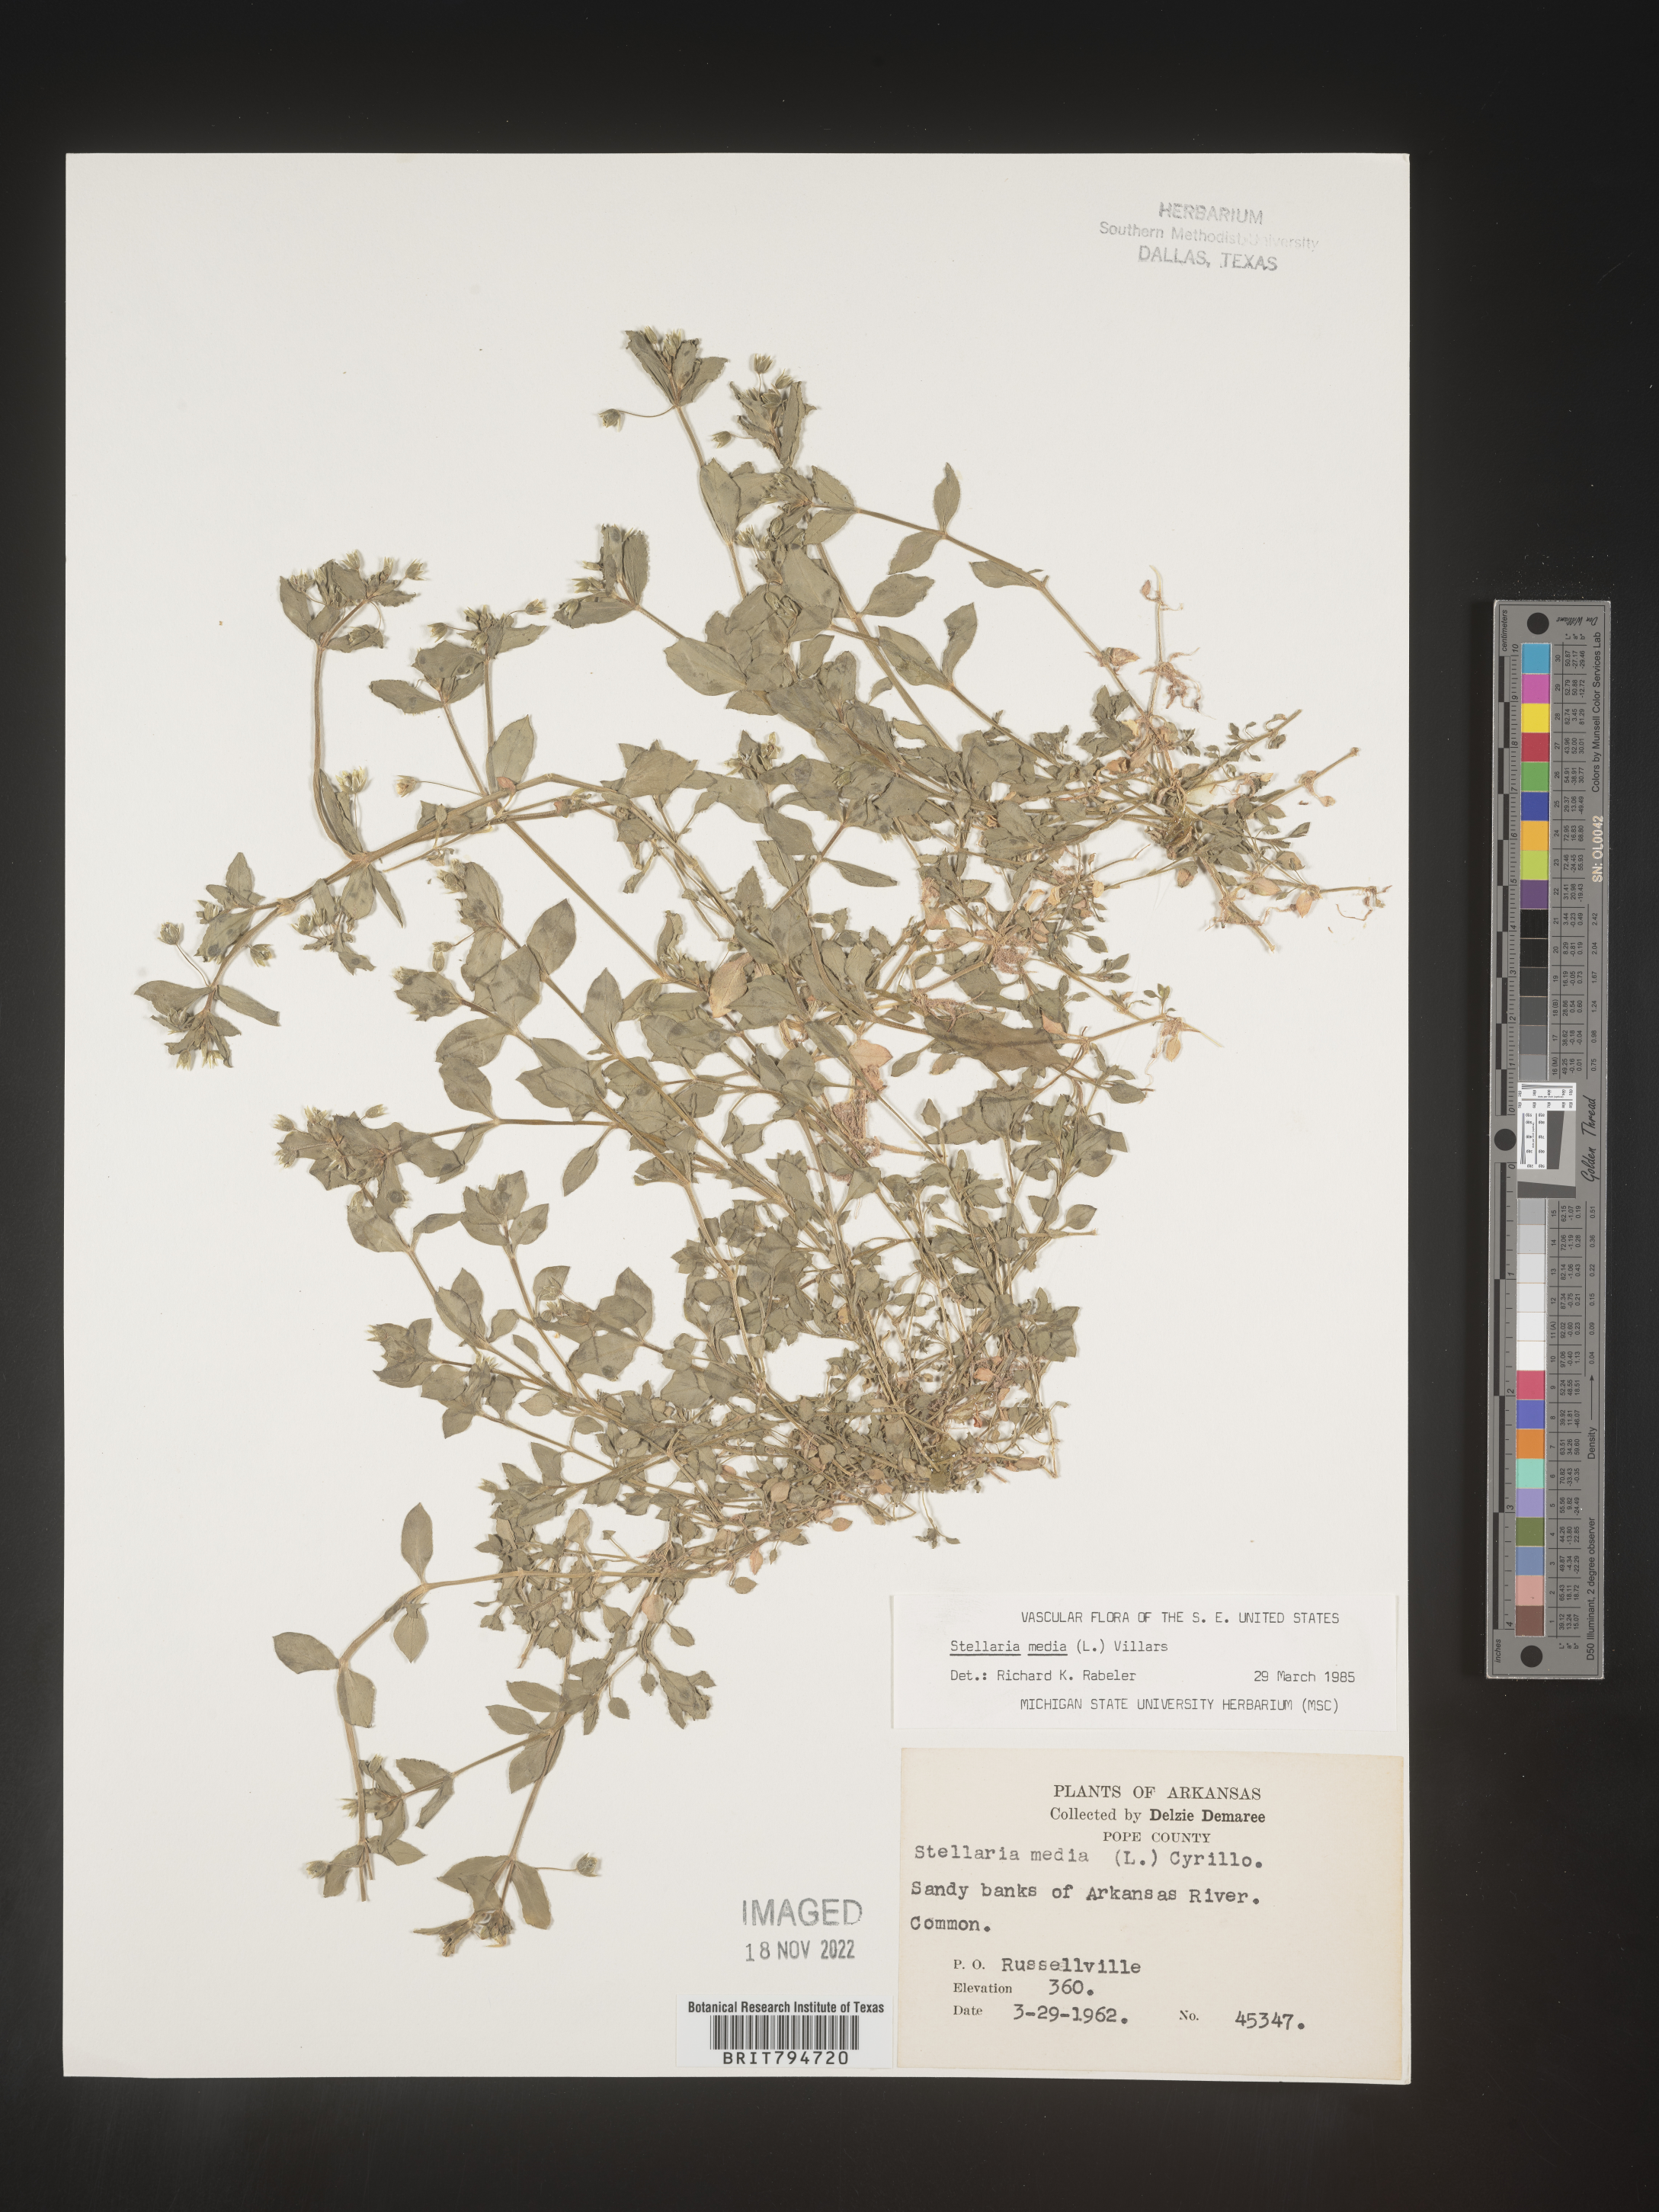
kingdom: Plantae
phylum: Tracheophyta
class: Magnoliopsida
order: Caryophyllales
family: Caryophyllaceae
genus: Stellaria
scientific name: Stellaria media
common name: Common chickweed
